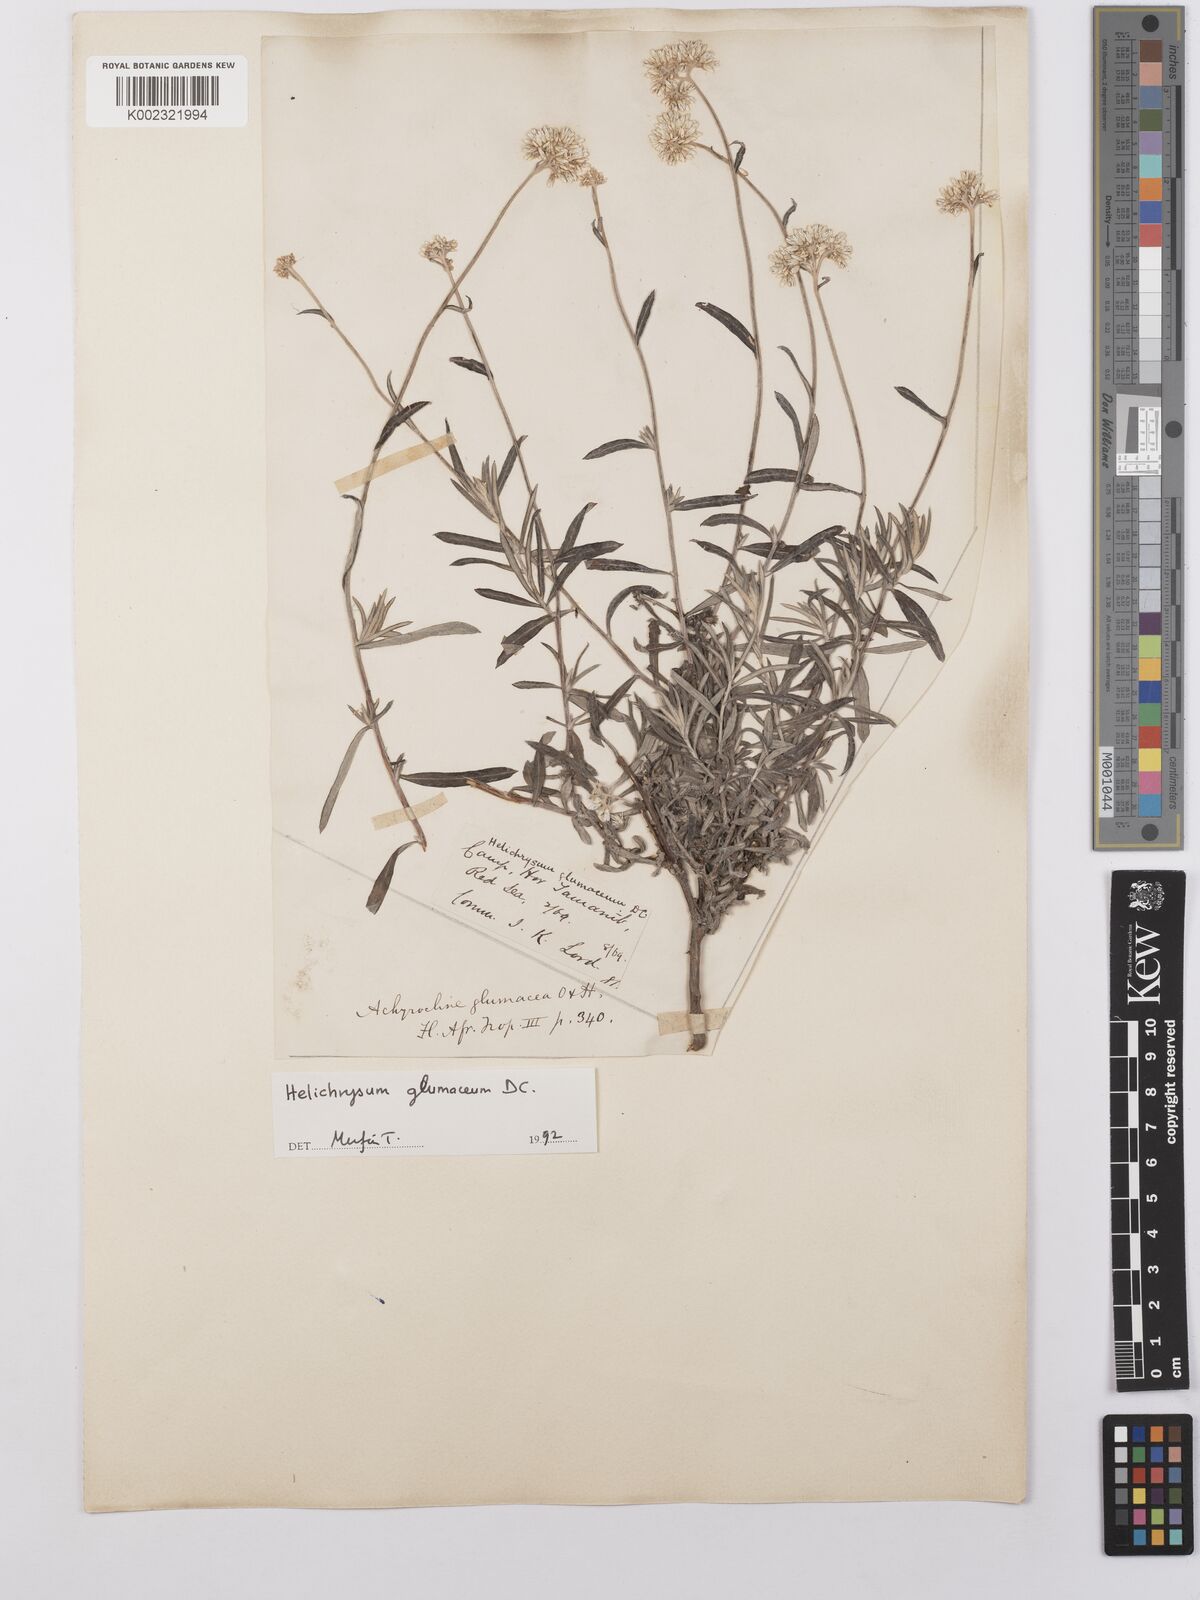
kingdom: Plantae
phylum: Tracheophyta
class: Magnoliopsida
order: Asterales
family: Asteraceae
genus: Helichrysum
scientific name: Helichrysum glumaceum
